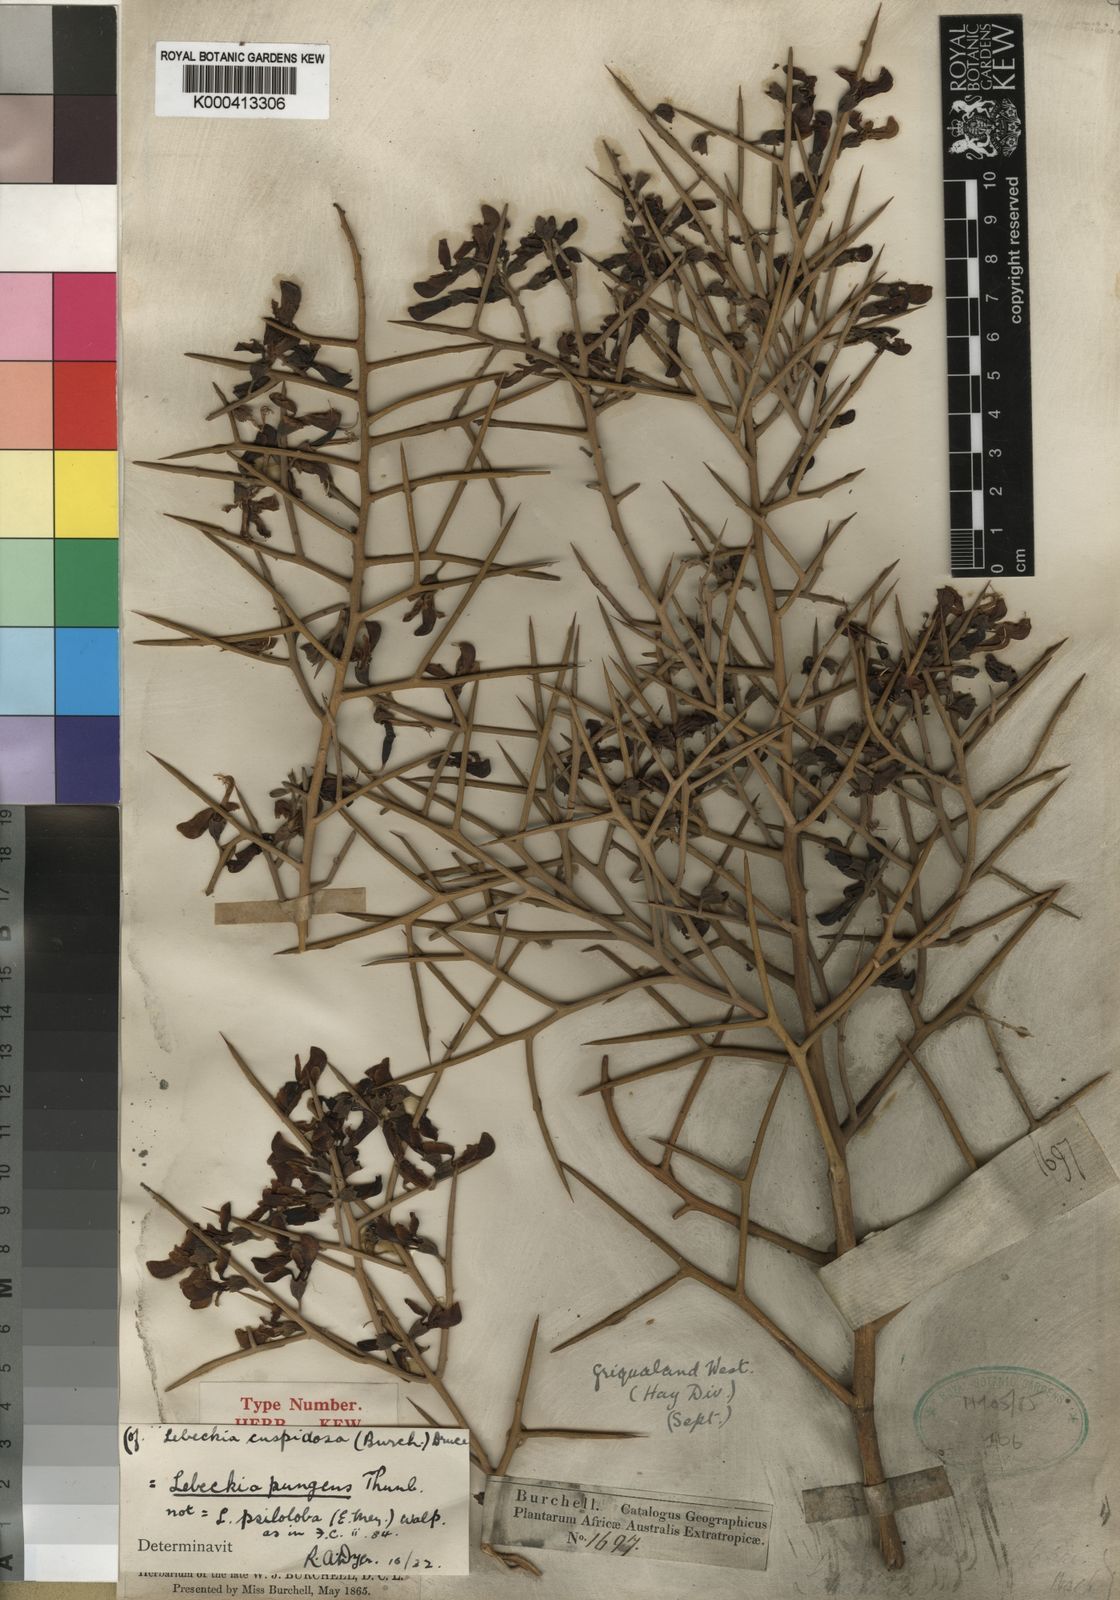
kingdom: Plantae
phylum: Tracheophyta
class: Magnoliopsida
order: Fabales
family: Fabaceae
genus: Lebeckia
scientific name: Lebeckia
